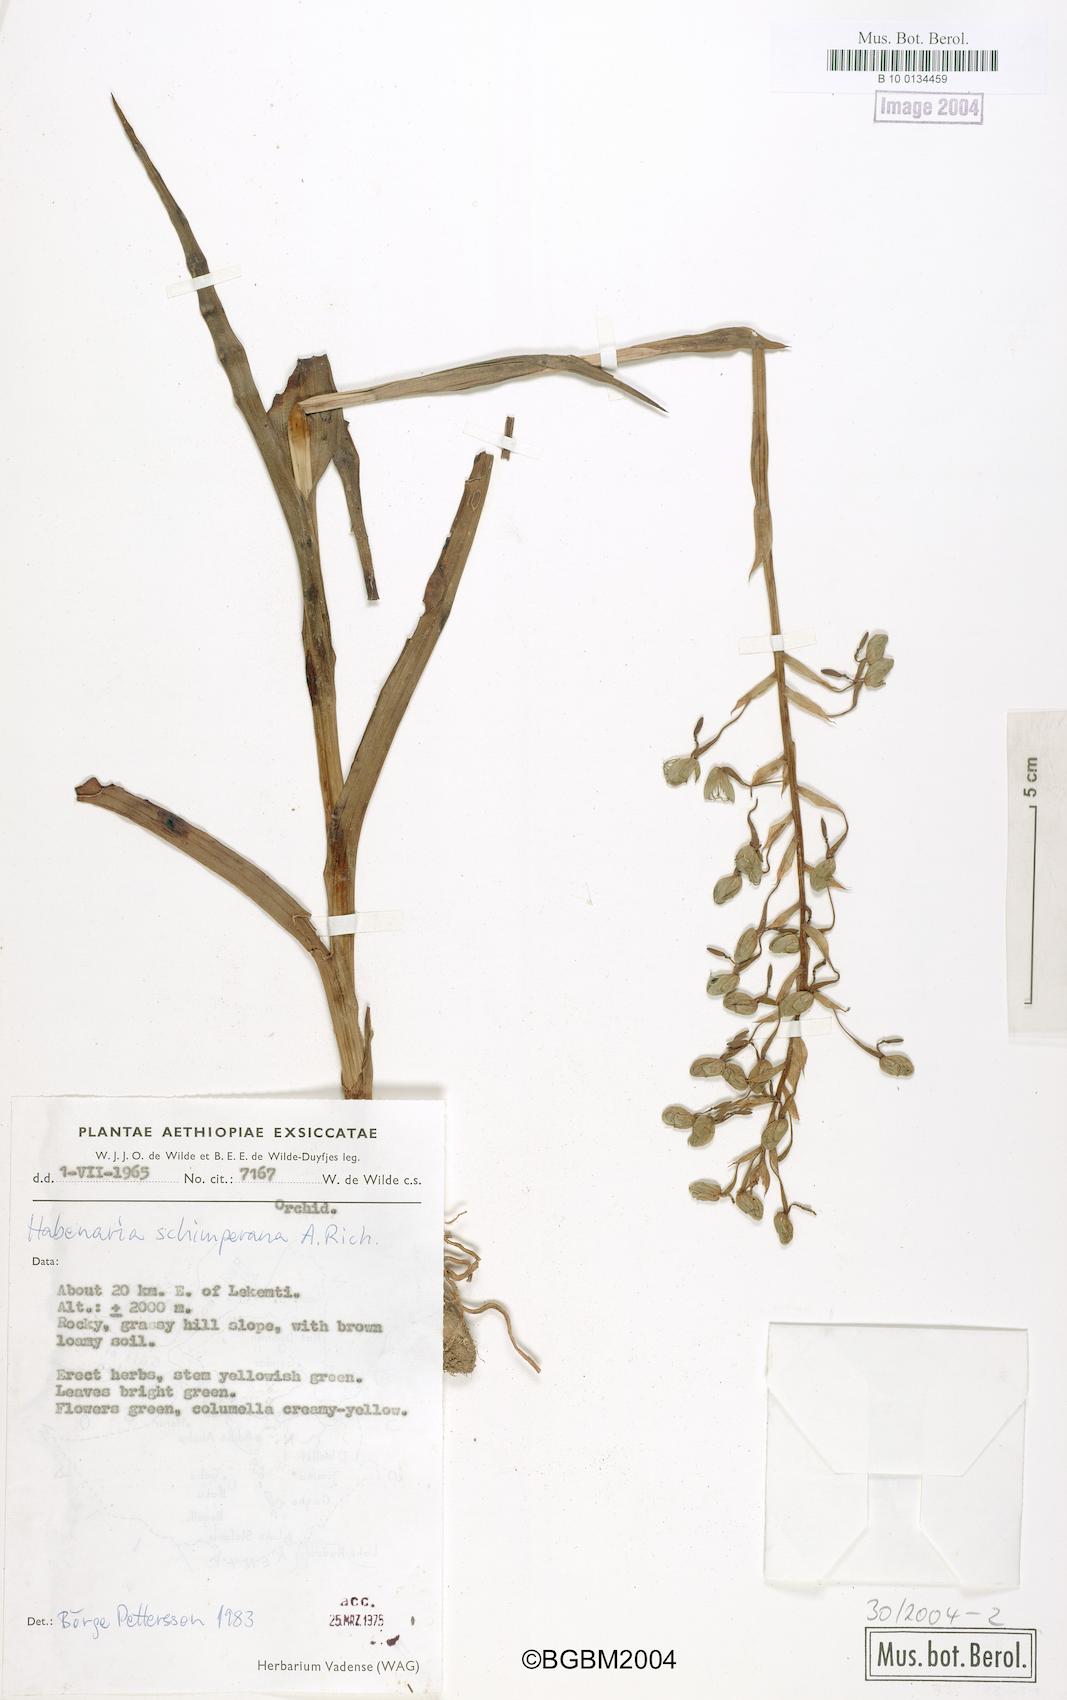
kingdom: Plantae
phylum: Tracheophyta
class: Liliopsida
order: Asparagales
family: Orchidaceae
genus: Habenaria
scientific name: Habenaria schimperiana
